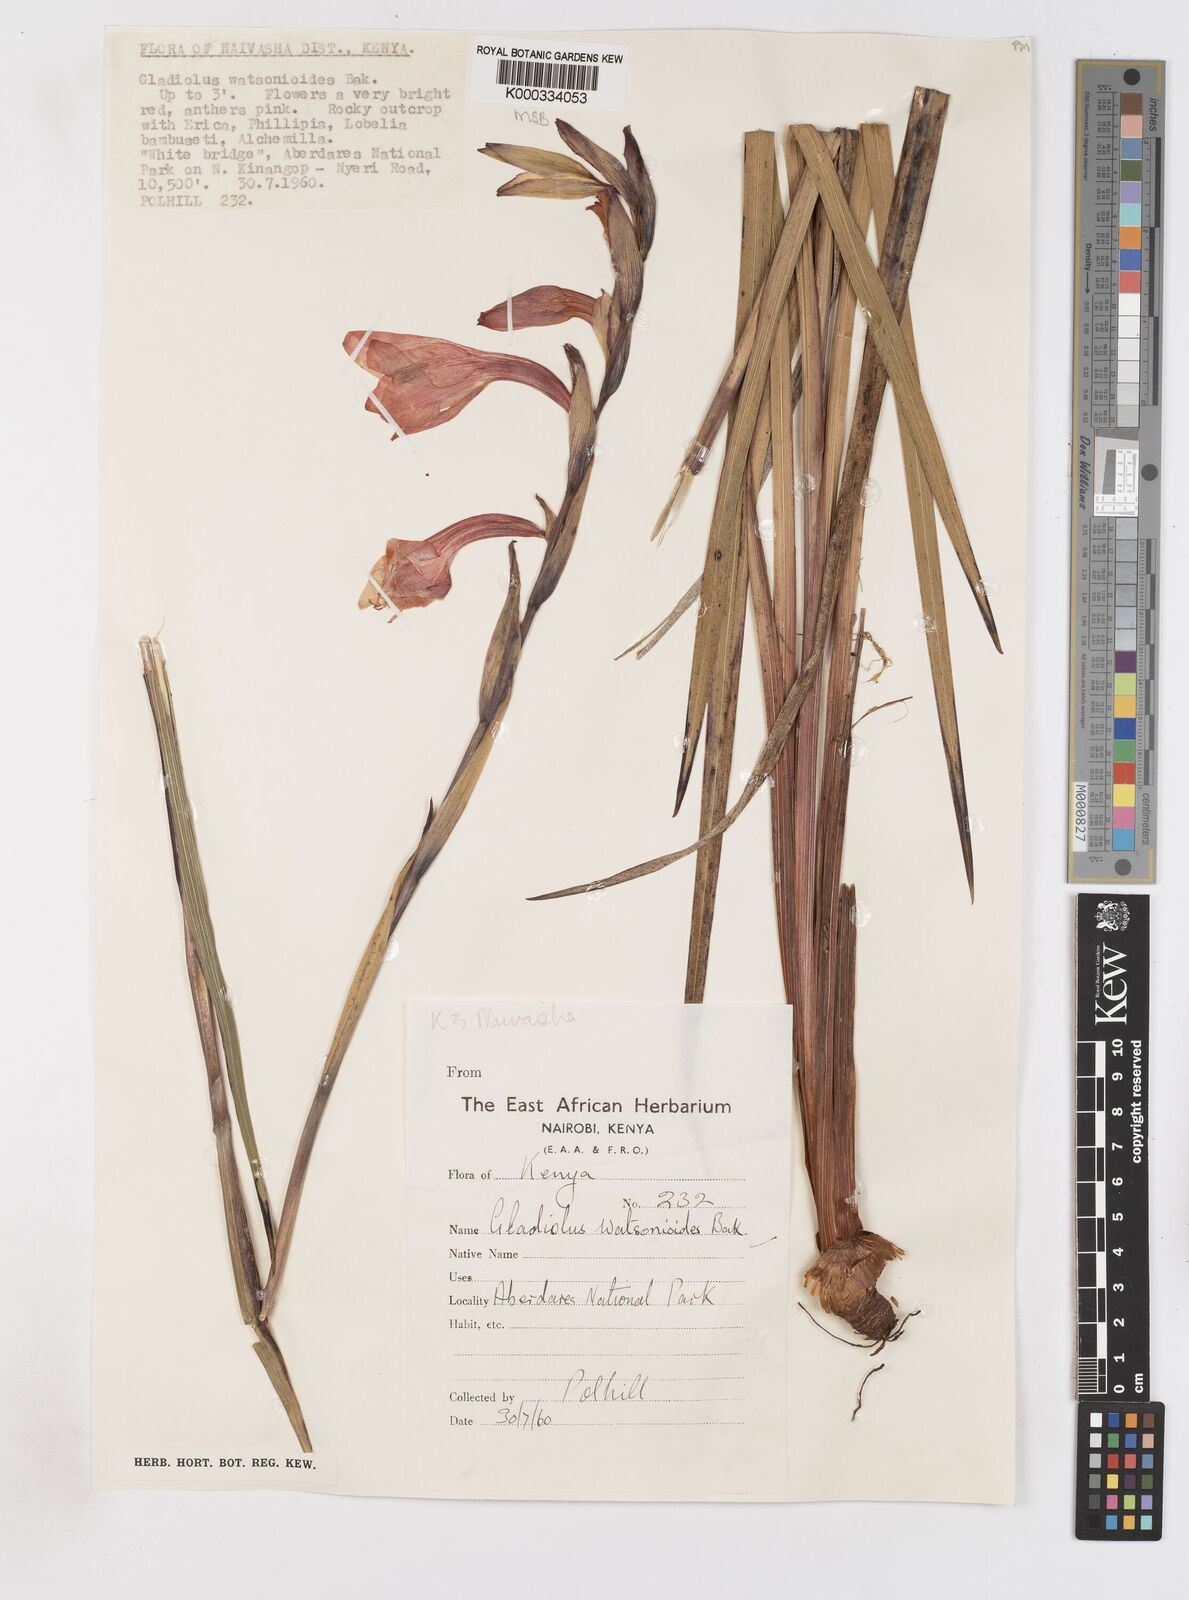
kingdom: Plantae
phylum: Tracheophyta
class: Liliopsida
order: Asparagales
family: Iridaceae
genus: Gladiolus
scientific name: Gladiolus watsonioides
